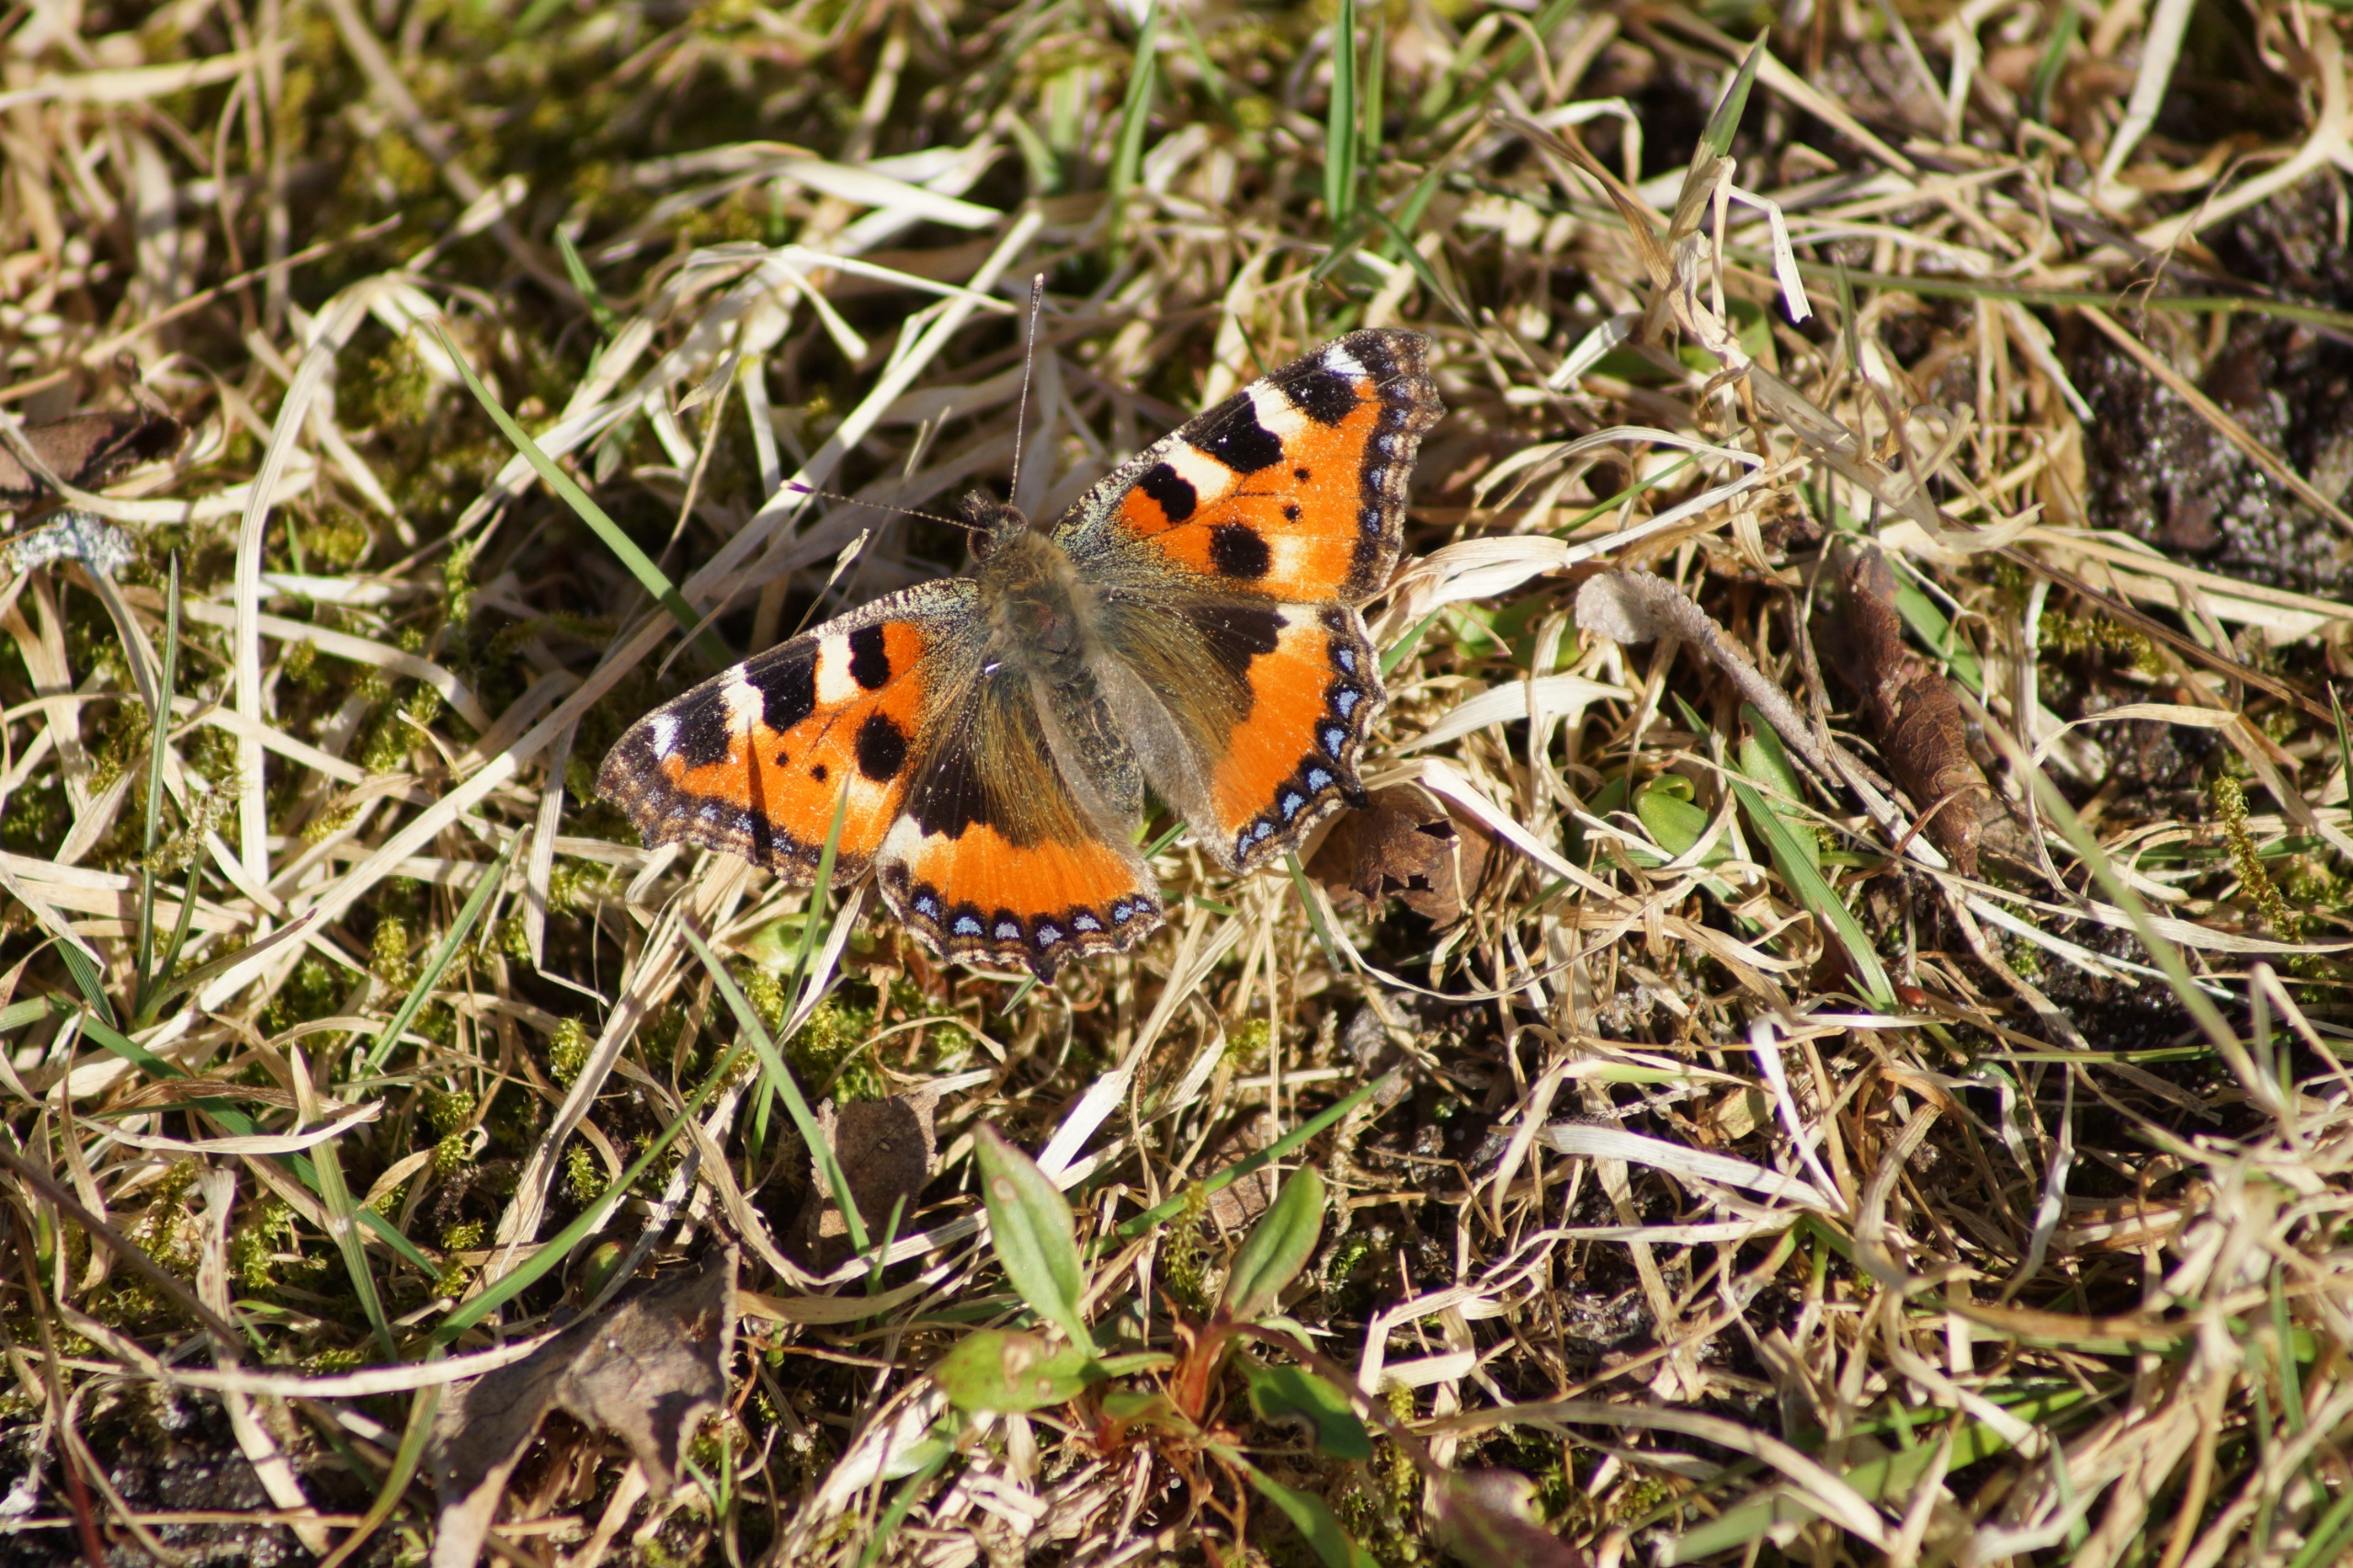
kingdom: Animalia
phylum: Arthropoda
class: Insecta
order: Lepidoptera
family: Nymphalidae
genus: Aglais
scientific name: Aglais urticae
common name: Nældens takvinge
